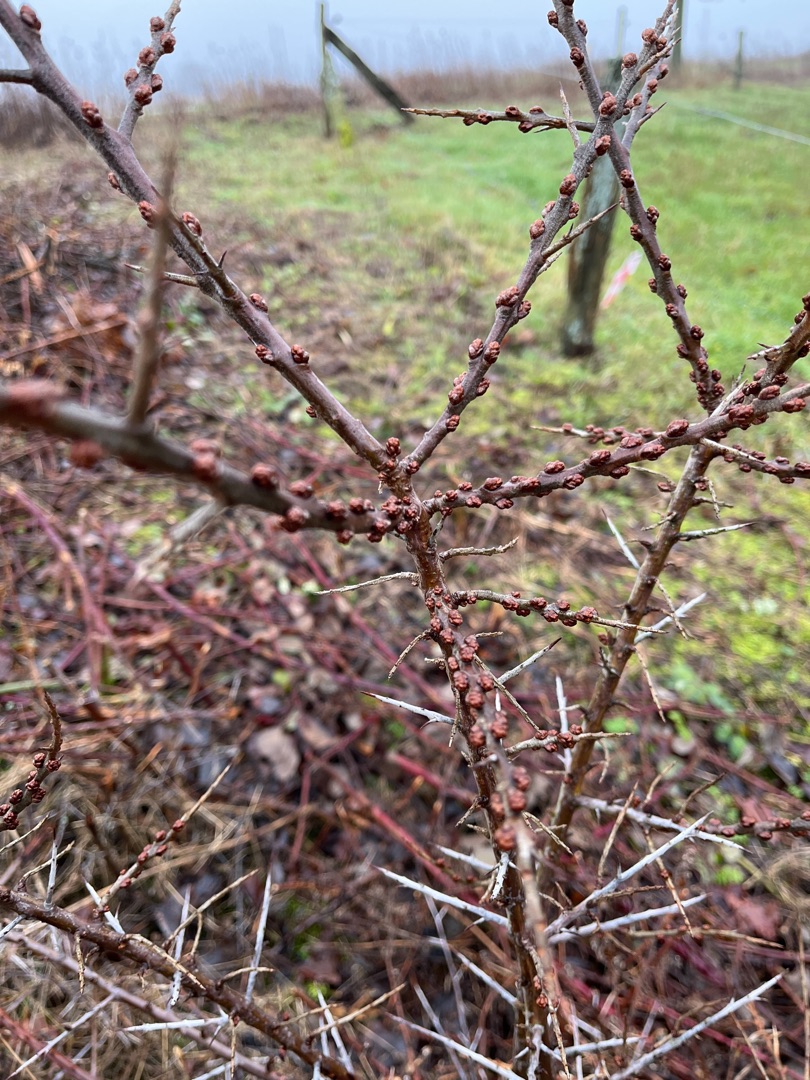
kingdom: Plantae
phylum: Tracheophyta
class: Magnoliopsida
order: Rosales
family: Elaeagnaceae
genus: Hippophae
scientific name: Hippophae rhamnoides
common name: Havtorn
